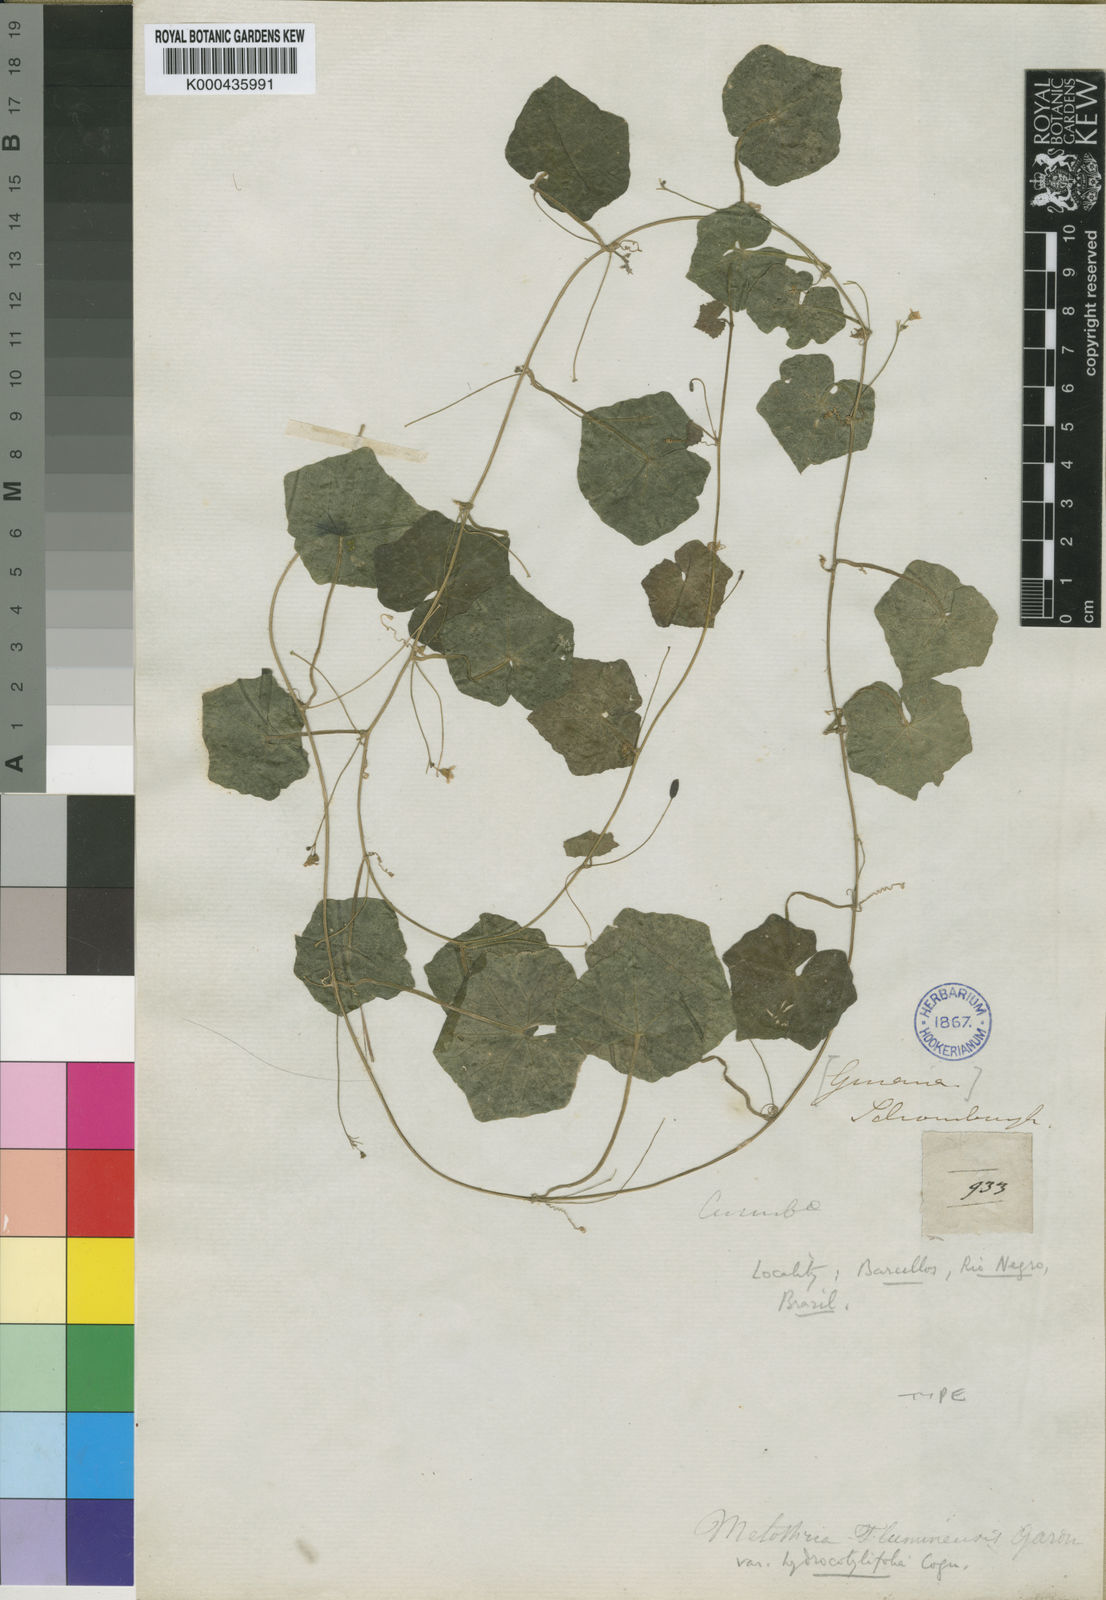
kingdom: Plantae
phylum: Tracheophyta
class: Magnoliopsida
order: Cucurbitales
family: Cucurbitaceae
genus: Melothria
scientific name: Melothria pendula
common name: Creeping-cucumber
